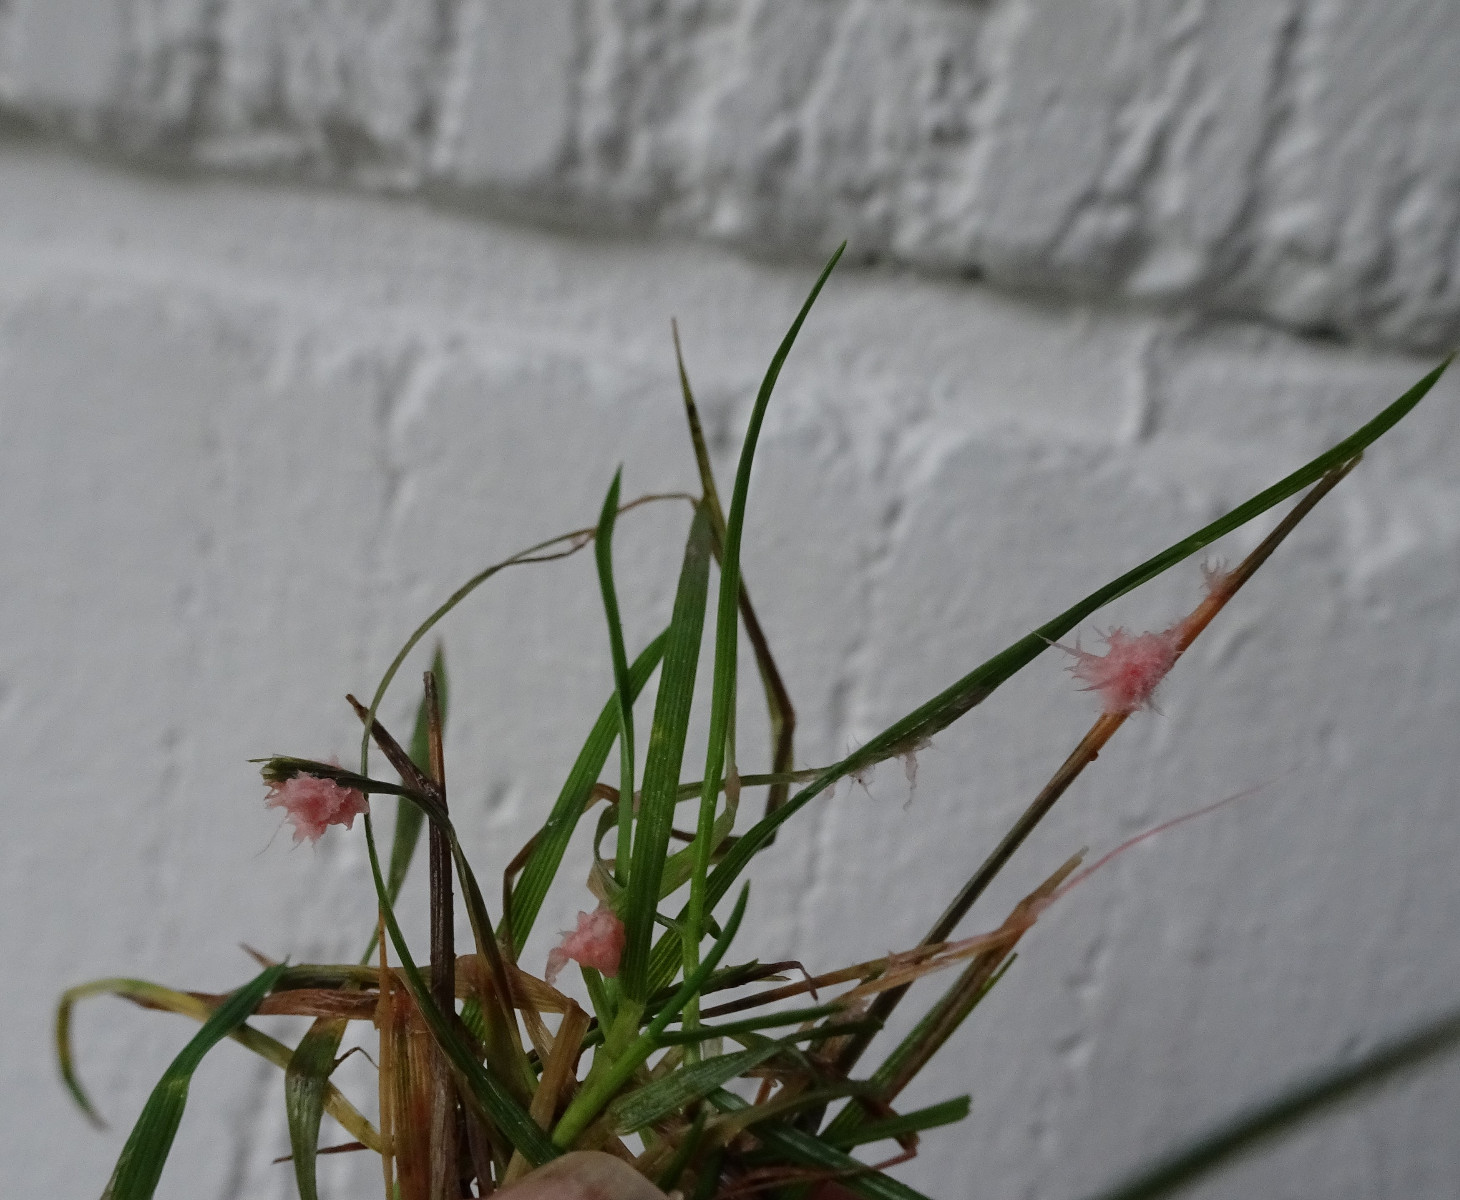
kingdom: Fungi
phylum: Basidiomycota
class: Agaricomycetes
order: Corticiales
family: Corticiaceae
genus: Laetisaria
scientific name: Laetisaria fuciformis
